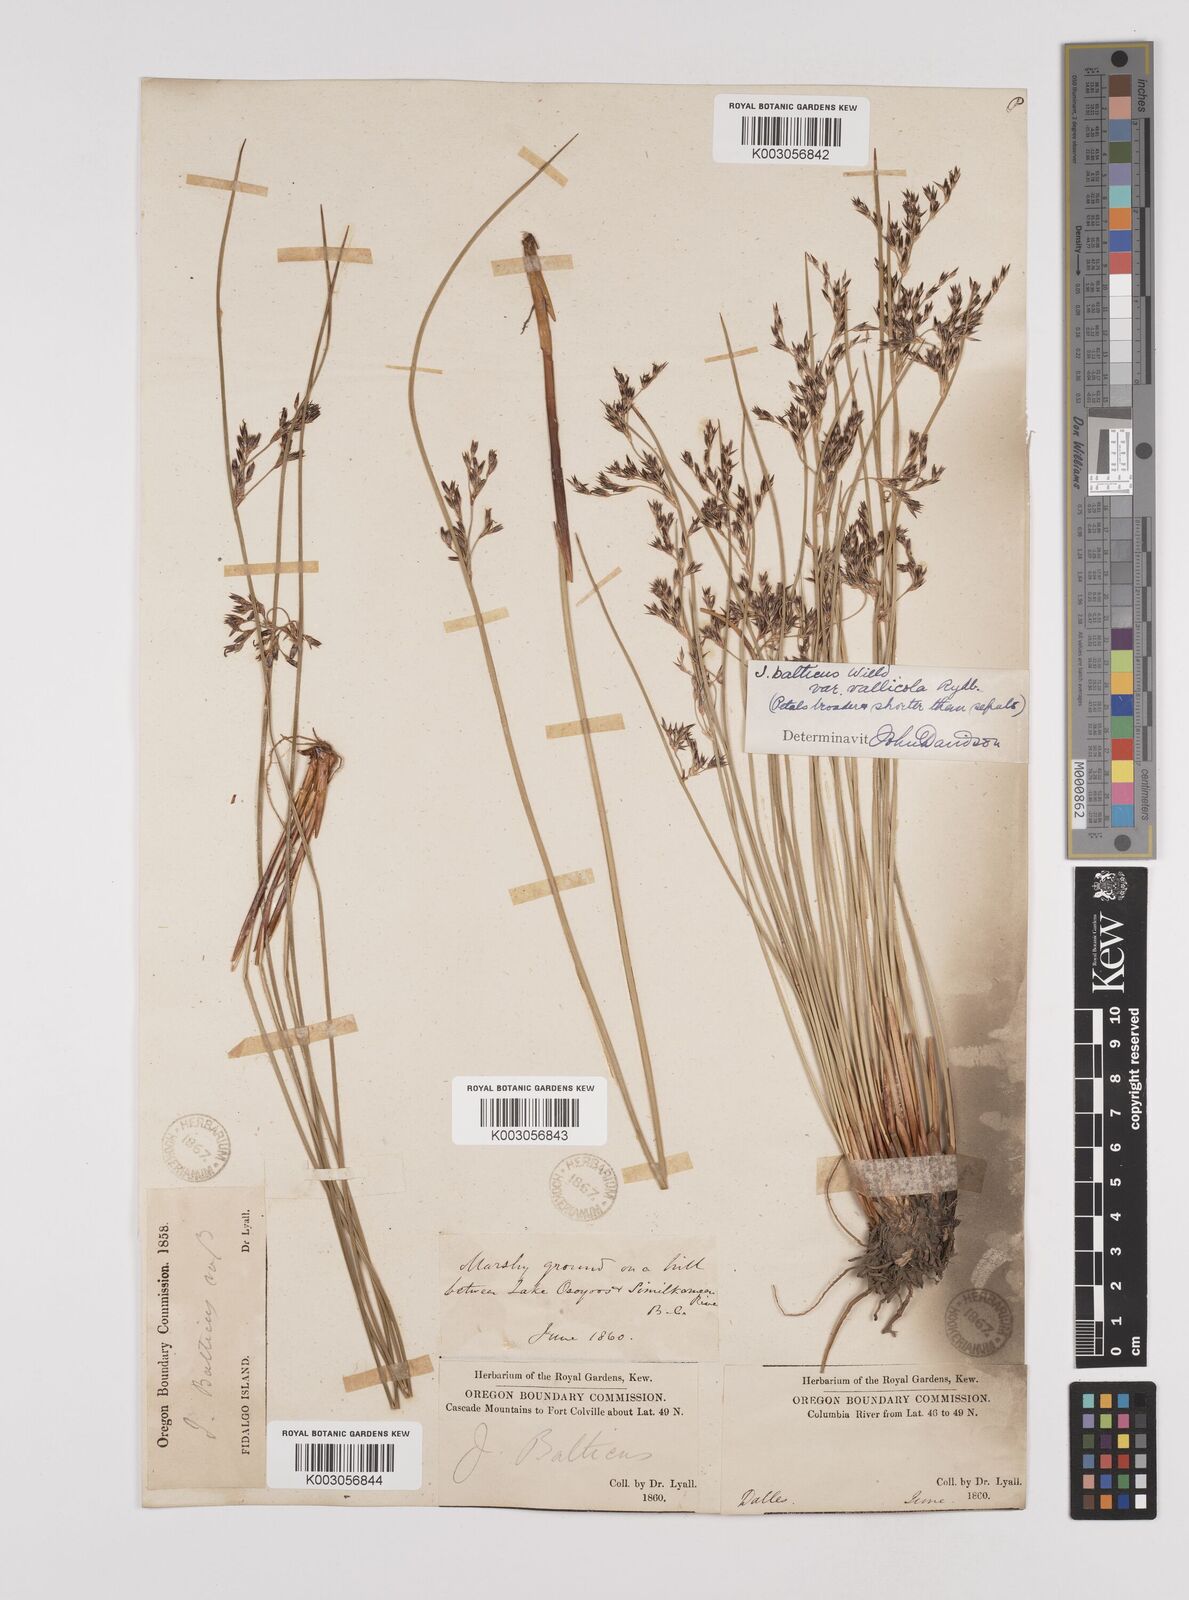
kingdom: Plantae
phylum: Tracheophyta
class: Liliopsida
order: Poales
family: Juncaceae
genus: Juncus
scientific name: Juncus balticus
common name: Baltic rush
